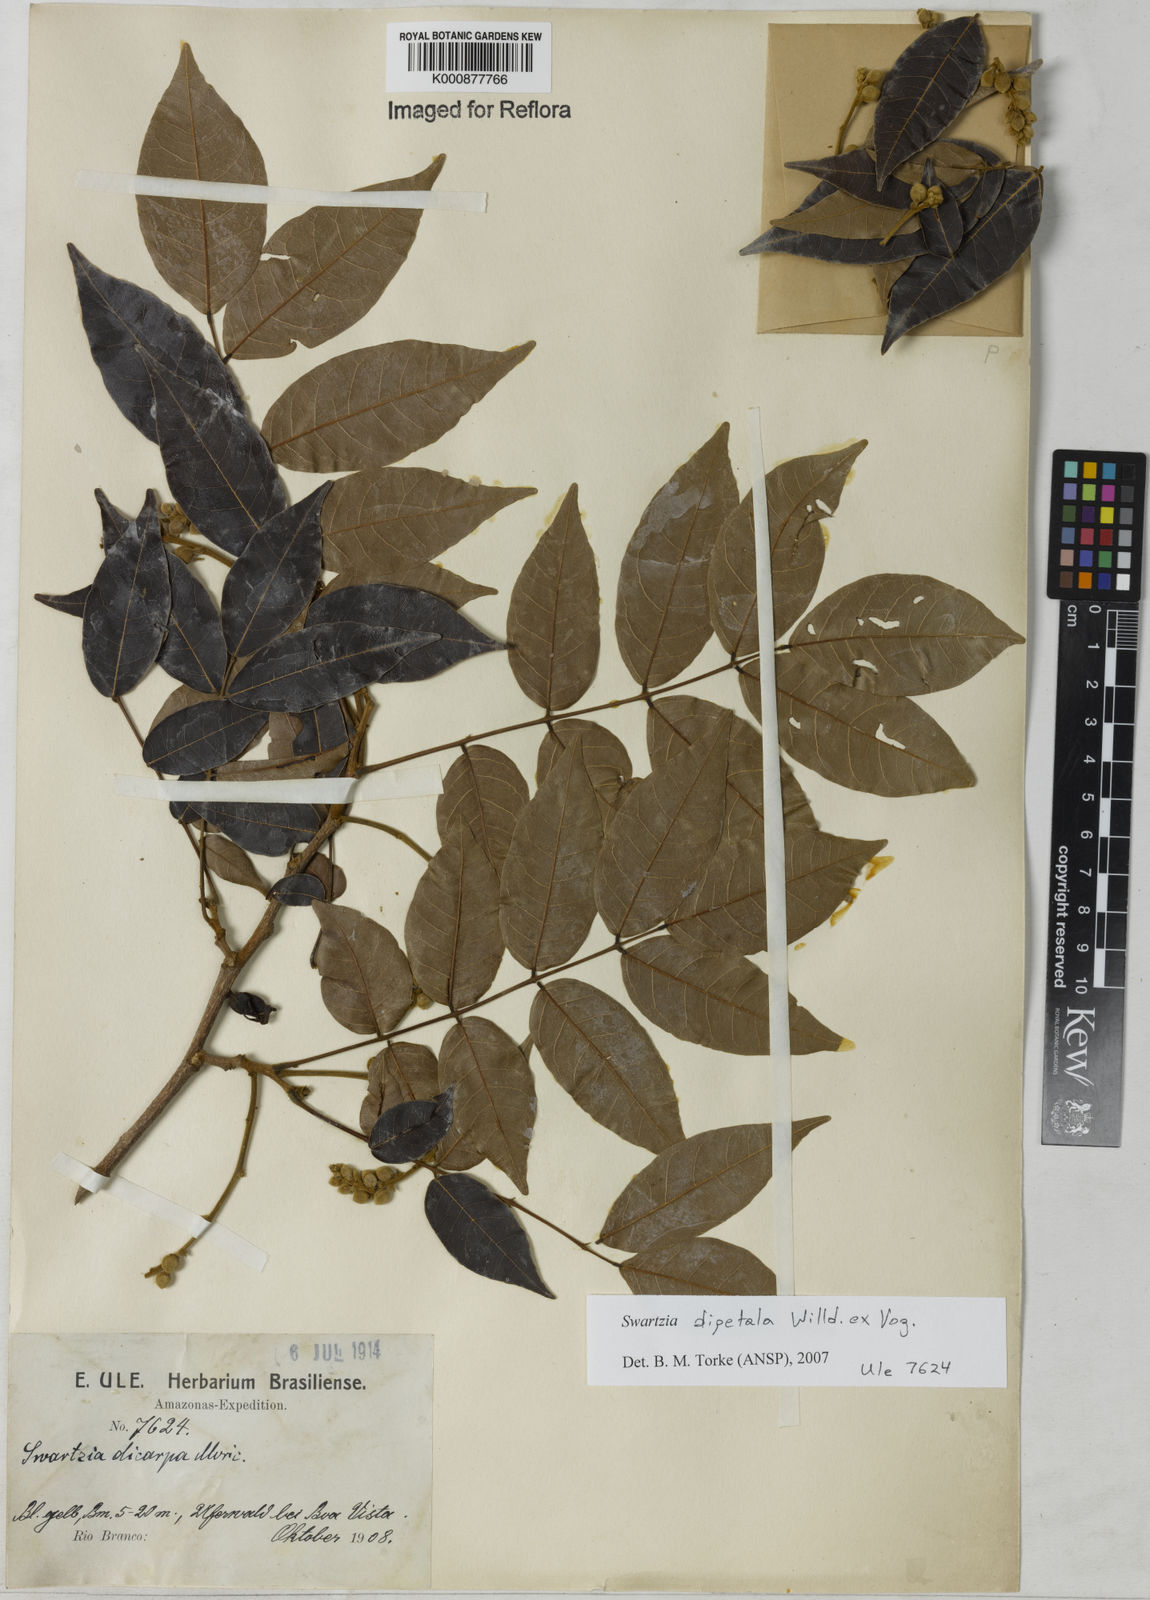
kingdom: Plantae
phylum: Tracheophyta
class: Magnoliopsida
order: Fabales
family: Fabaceae
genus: Swartzia
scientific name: Swartzia dipetala
